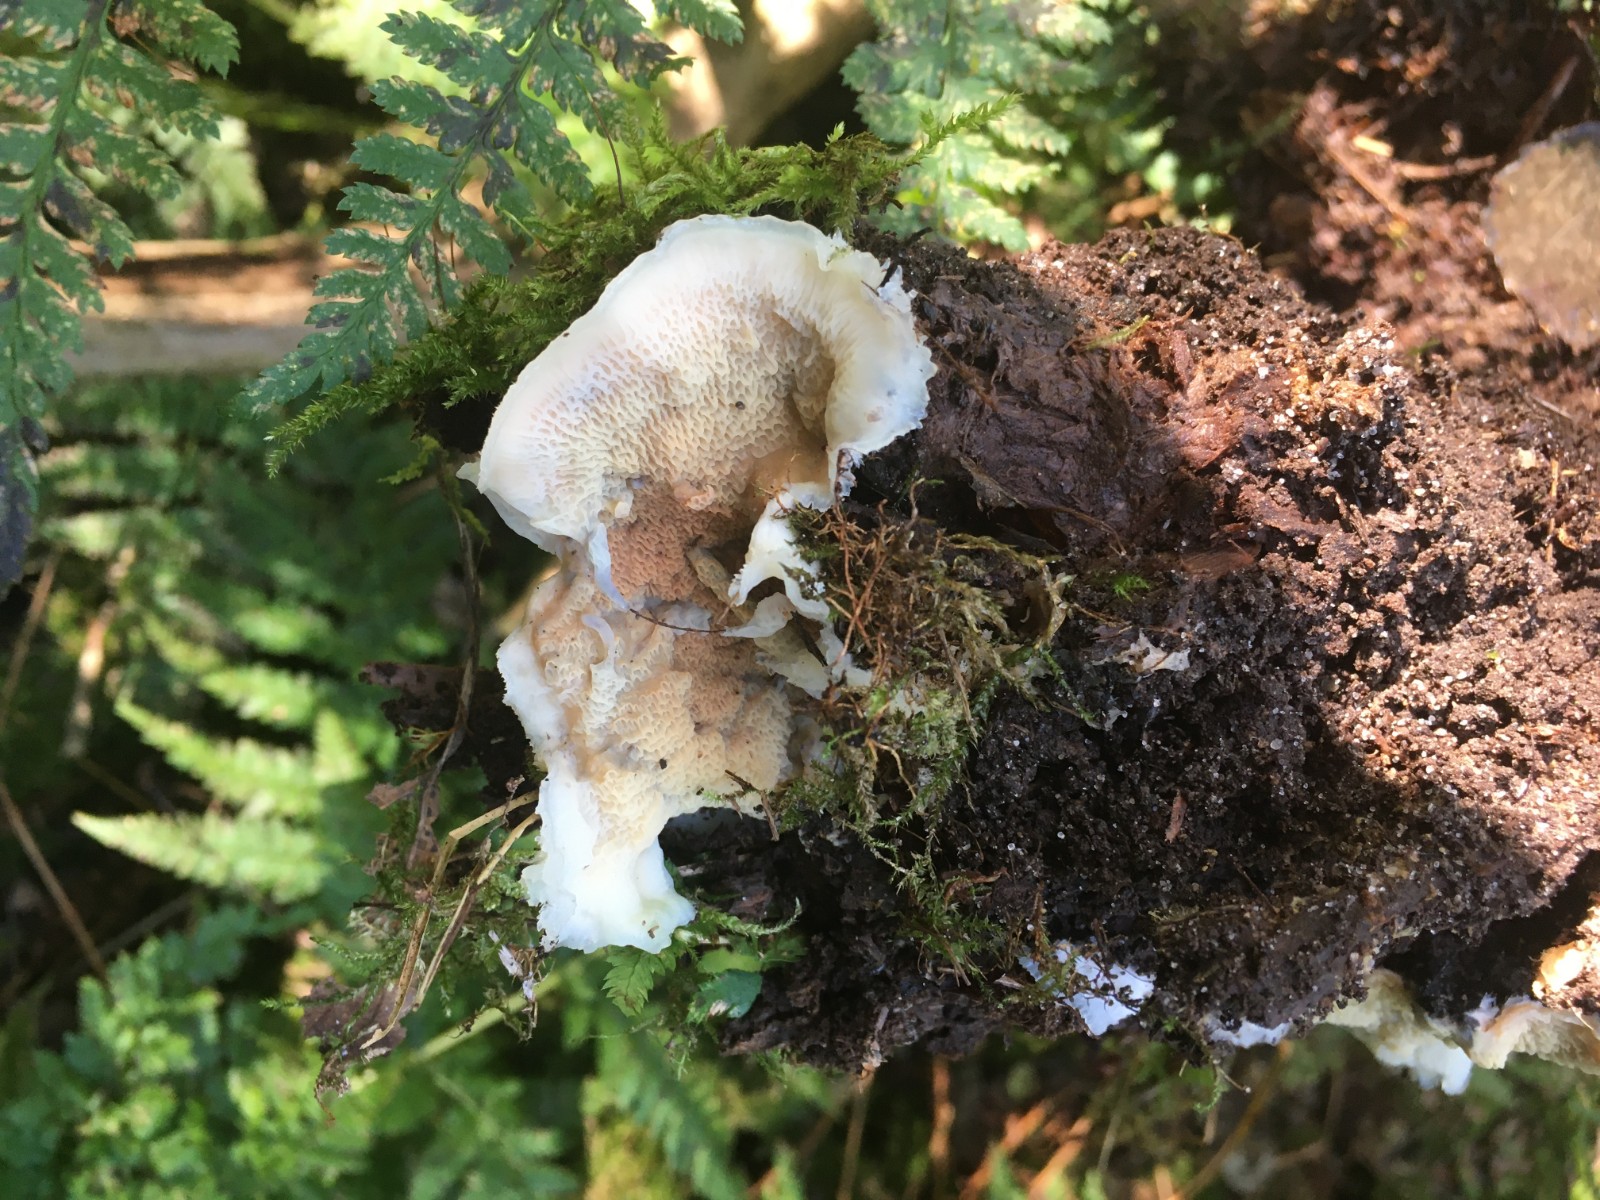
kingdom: Fungi
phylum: Basidiomycota
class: Agaricomycetes
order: Polyporales
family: Meruliaceae
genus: Phlebia
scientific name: Phlebia tremellosa
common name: bævrende åresvamp
